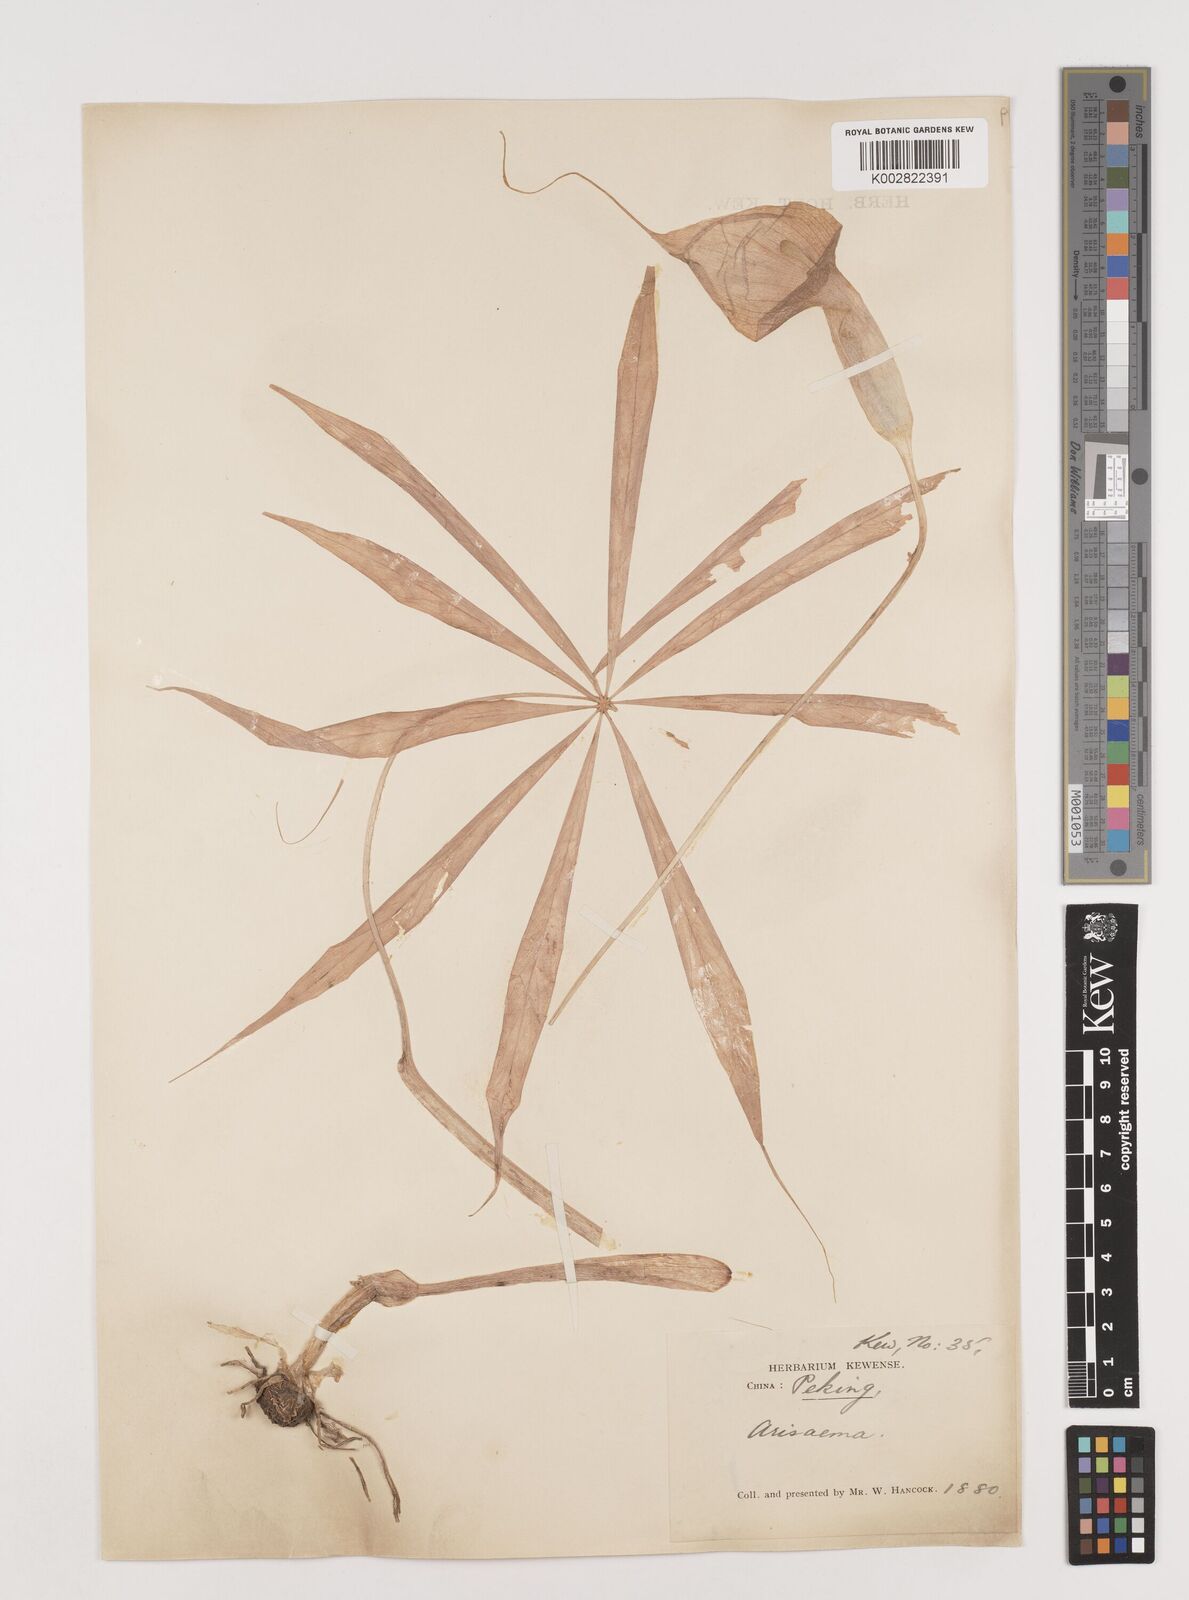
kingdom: Plantae
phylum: Tracheophyta
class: Liliopsida
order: Alismatales
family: Araceae
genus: Arisaema
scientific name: Arisaema erubescens
